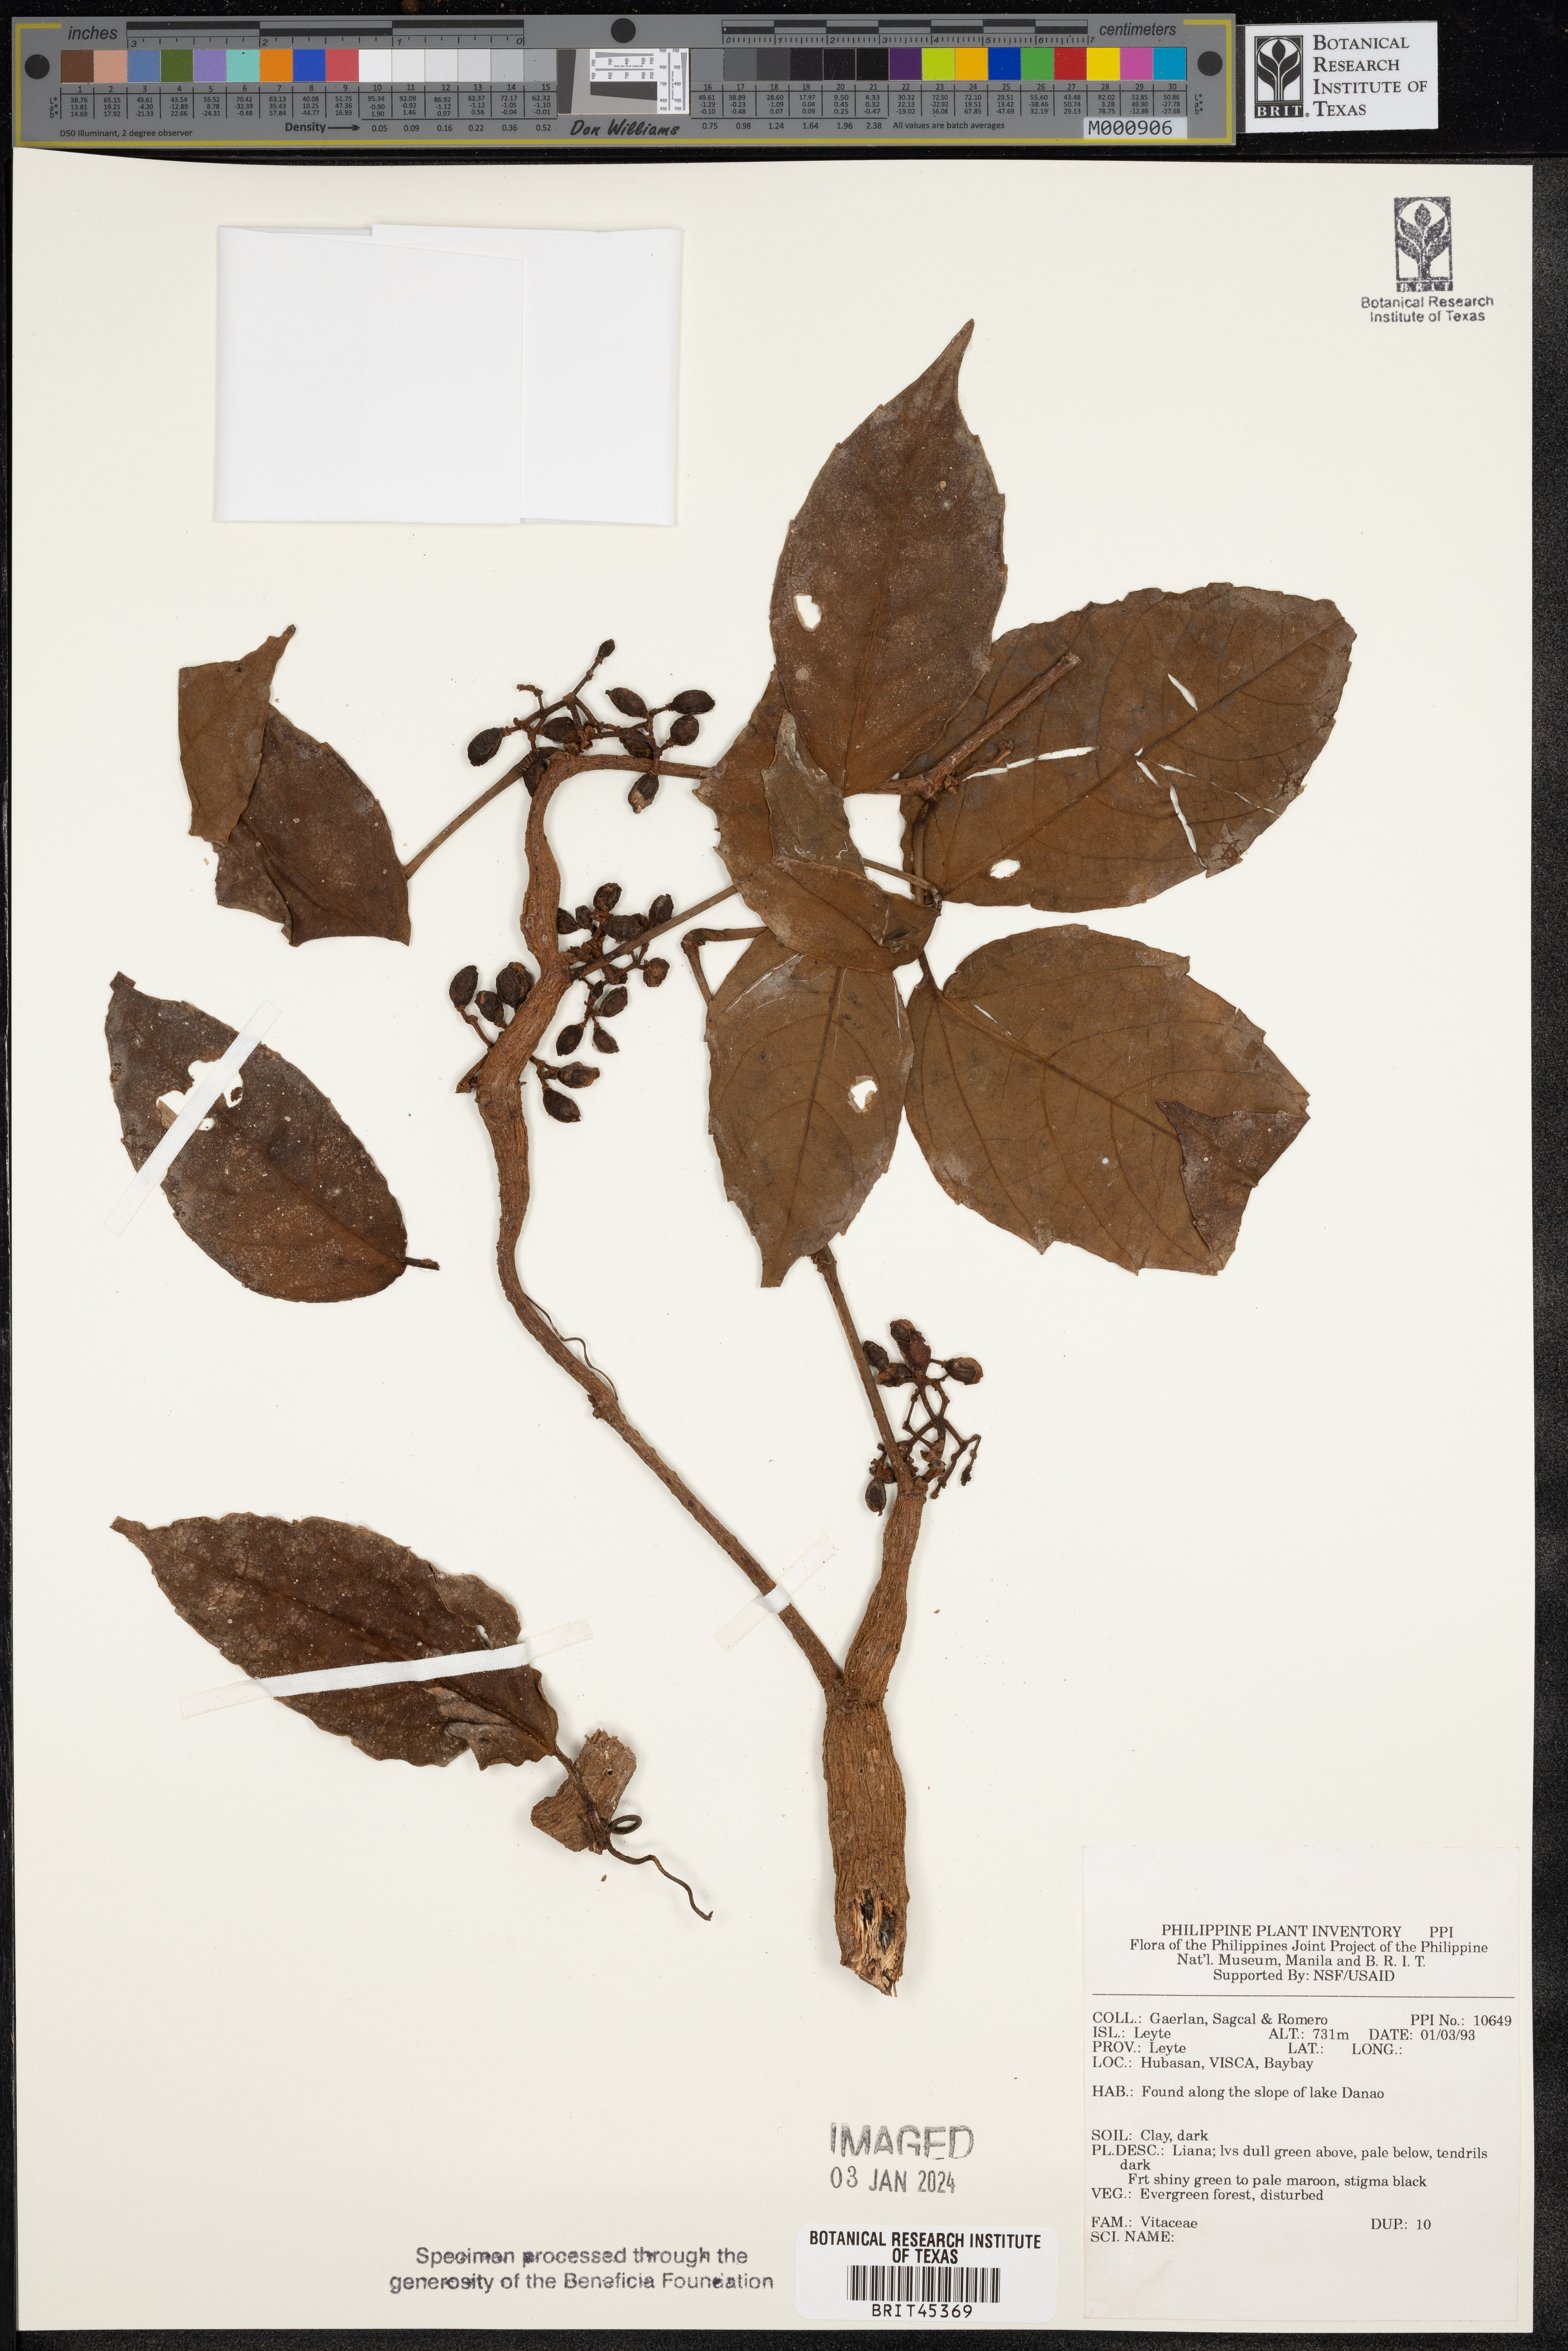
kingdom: Plantae
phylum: Tracheophyta
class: Magnoliopsida
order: Vitales
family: Vitaceae
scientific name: Vitaceae
